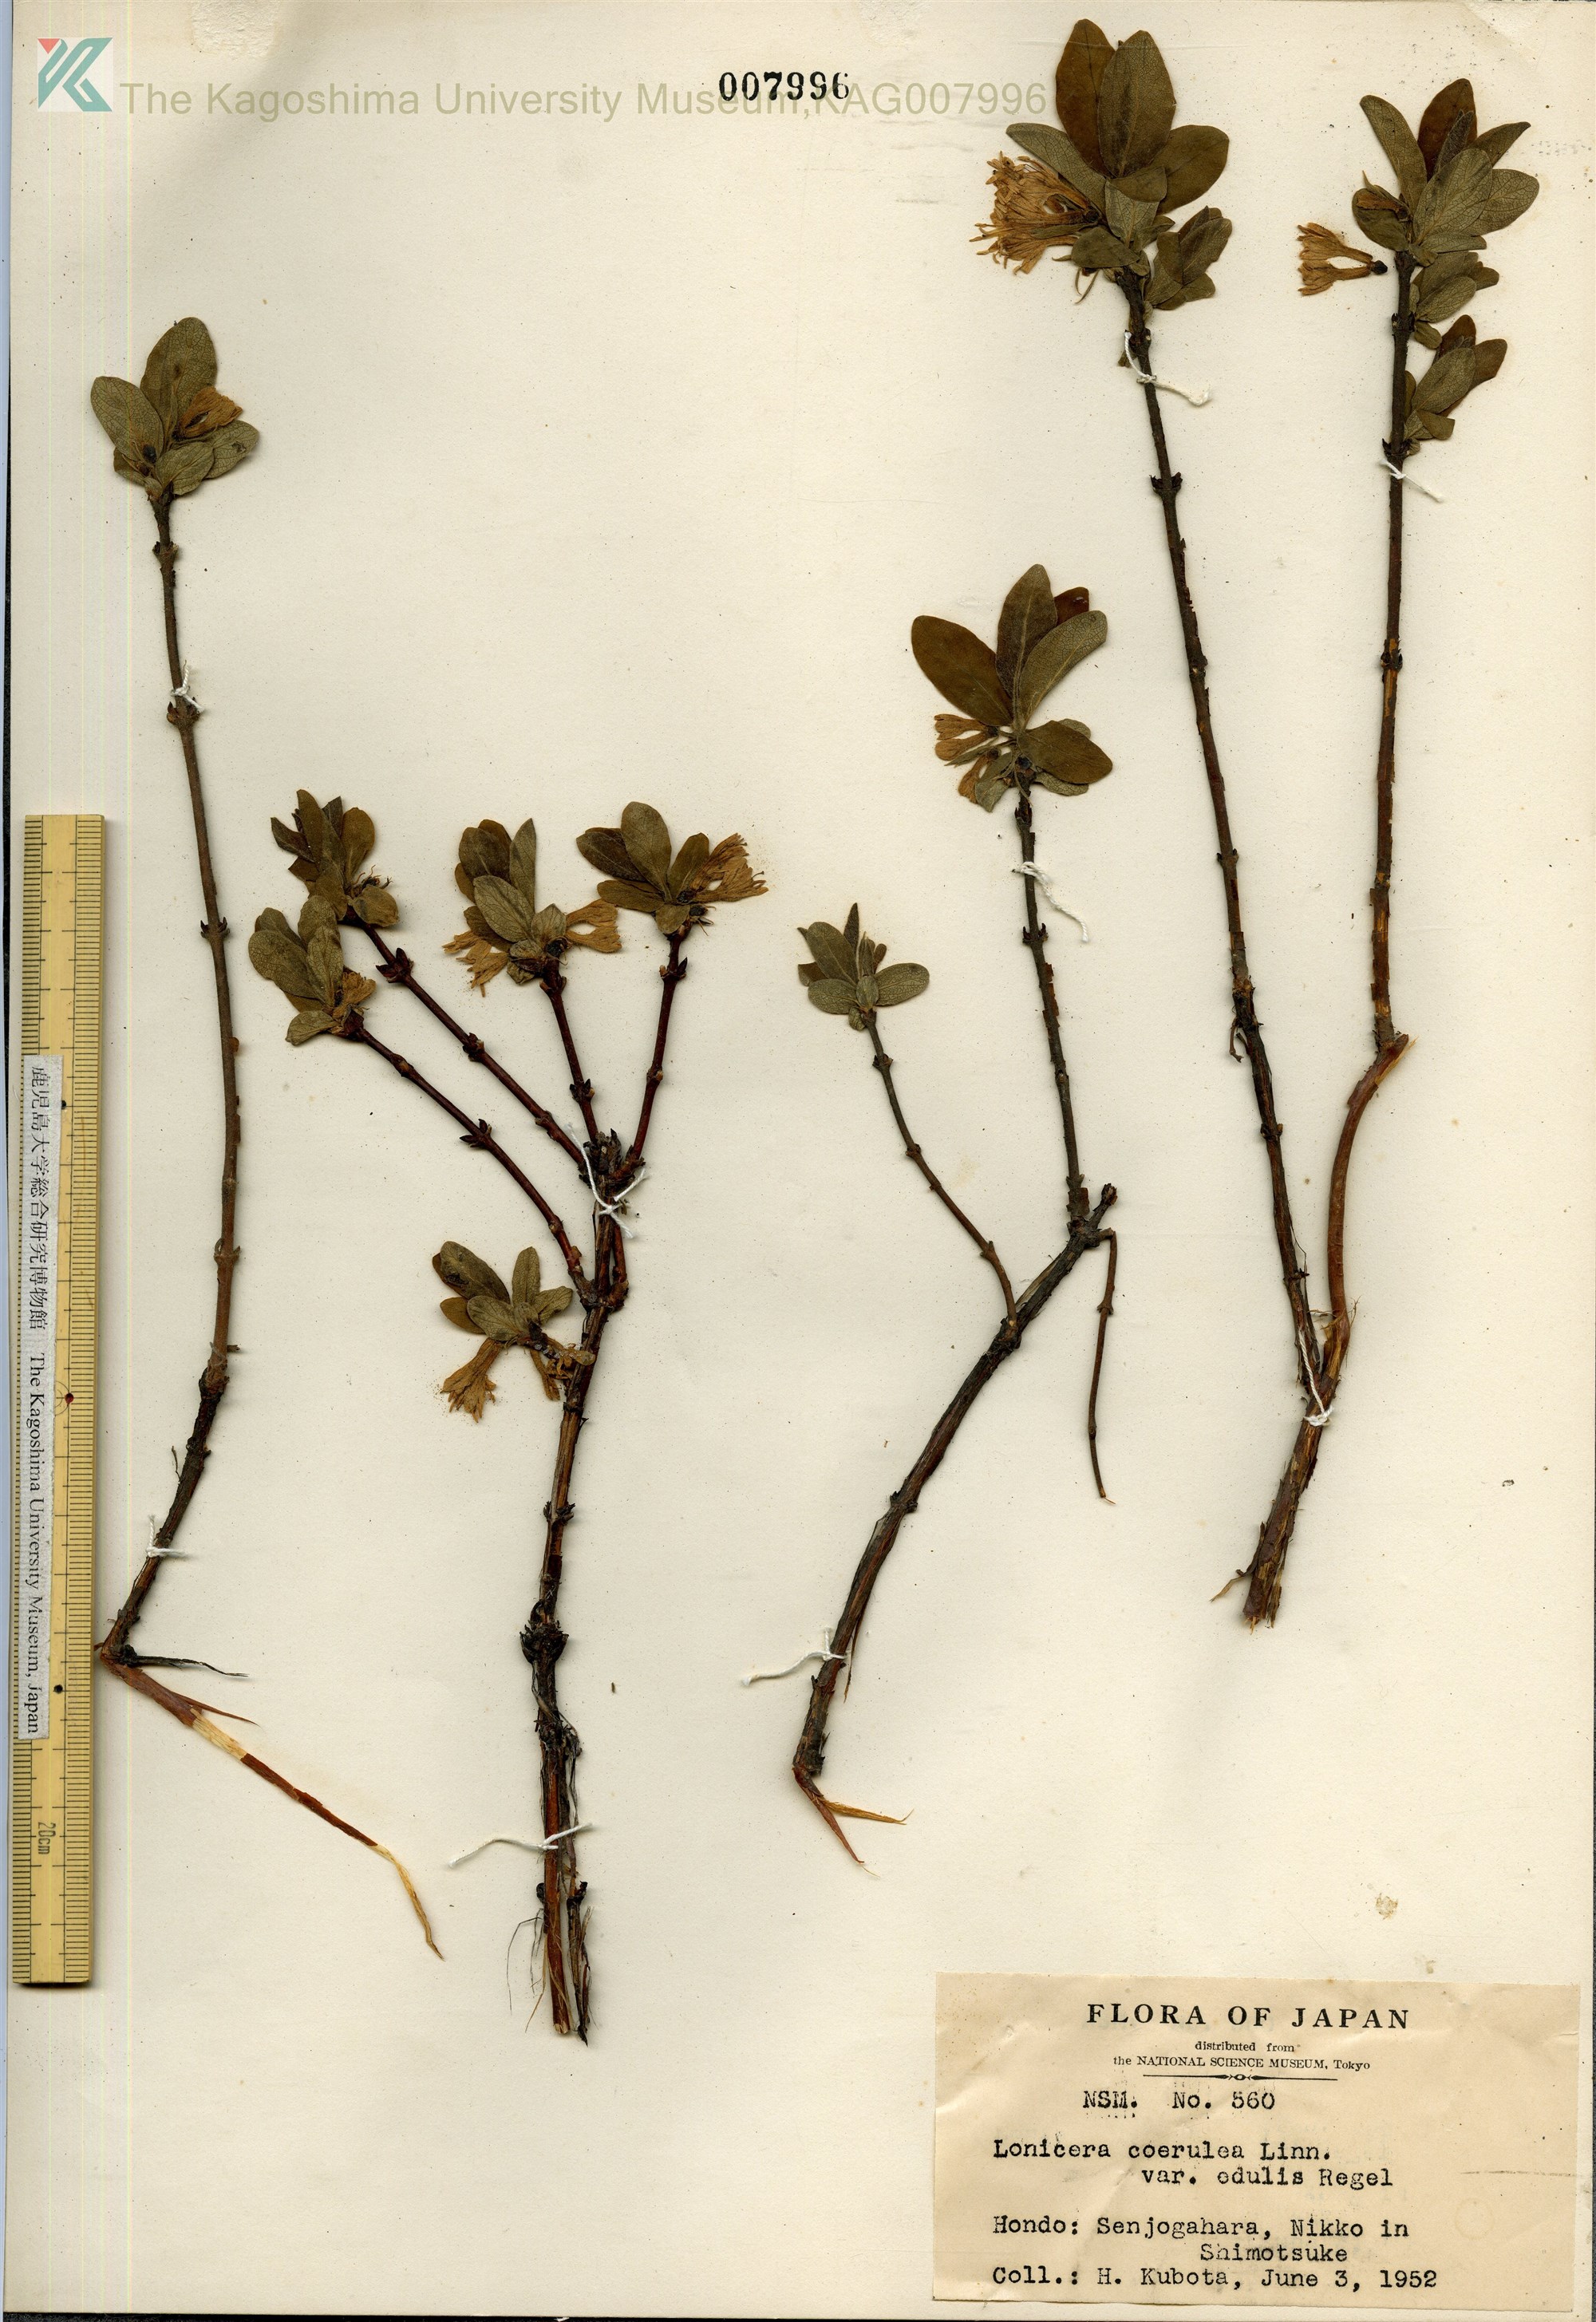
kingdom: Plantae
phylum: Tracheophyta
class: Magnoliopsida
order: Dipsacales
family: Caprifoliaceae
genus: Lonicera
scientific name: Lonicera caerulea
